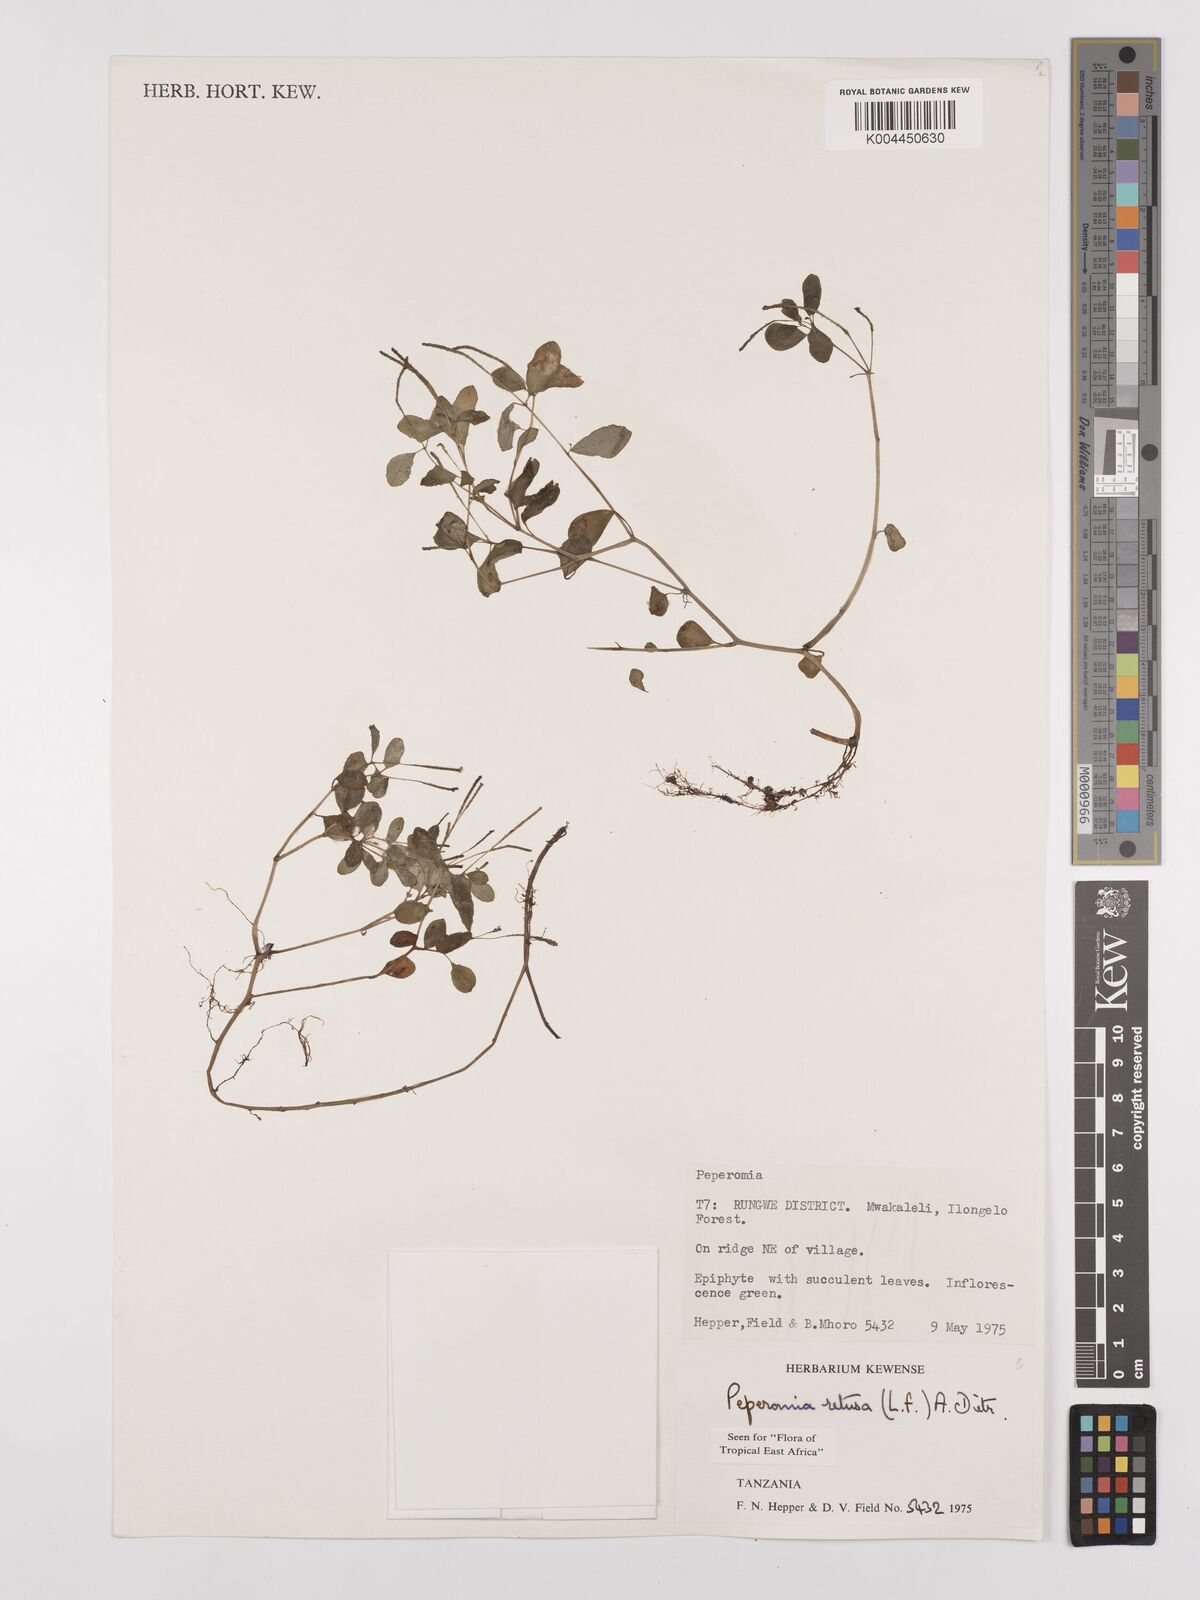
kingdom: Plantae
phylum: Tracheophyta
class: Magnoliopsida
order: Piperales
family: Piperaceae
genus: Peperomia
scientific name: Peperomia retusa
